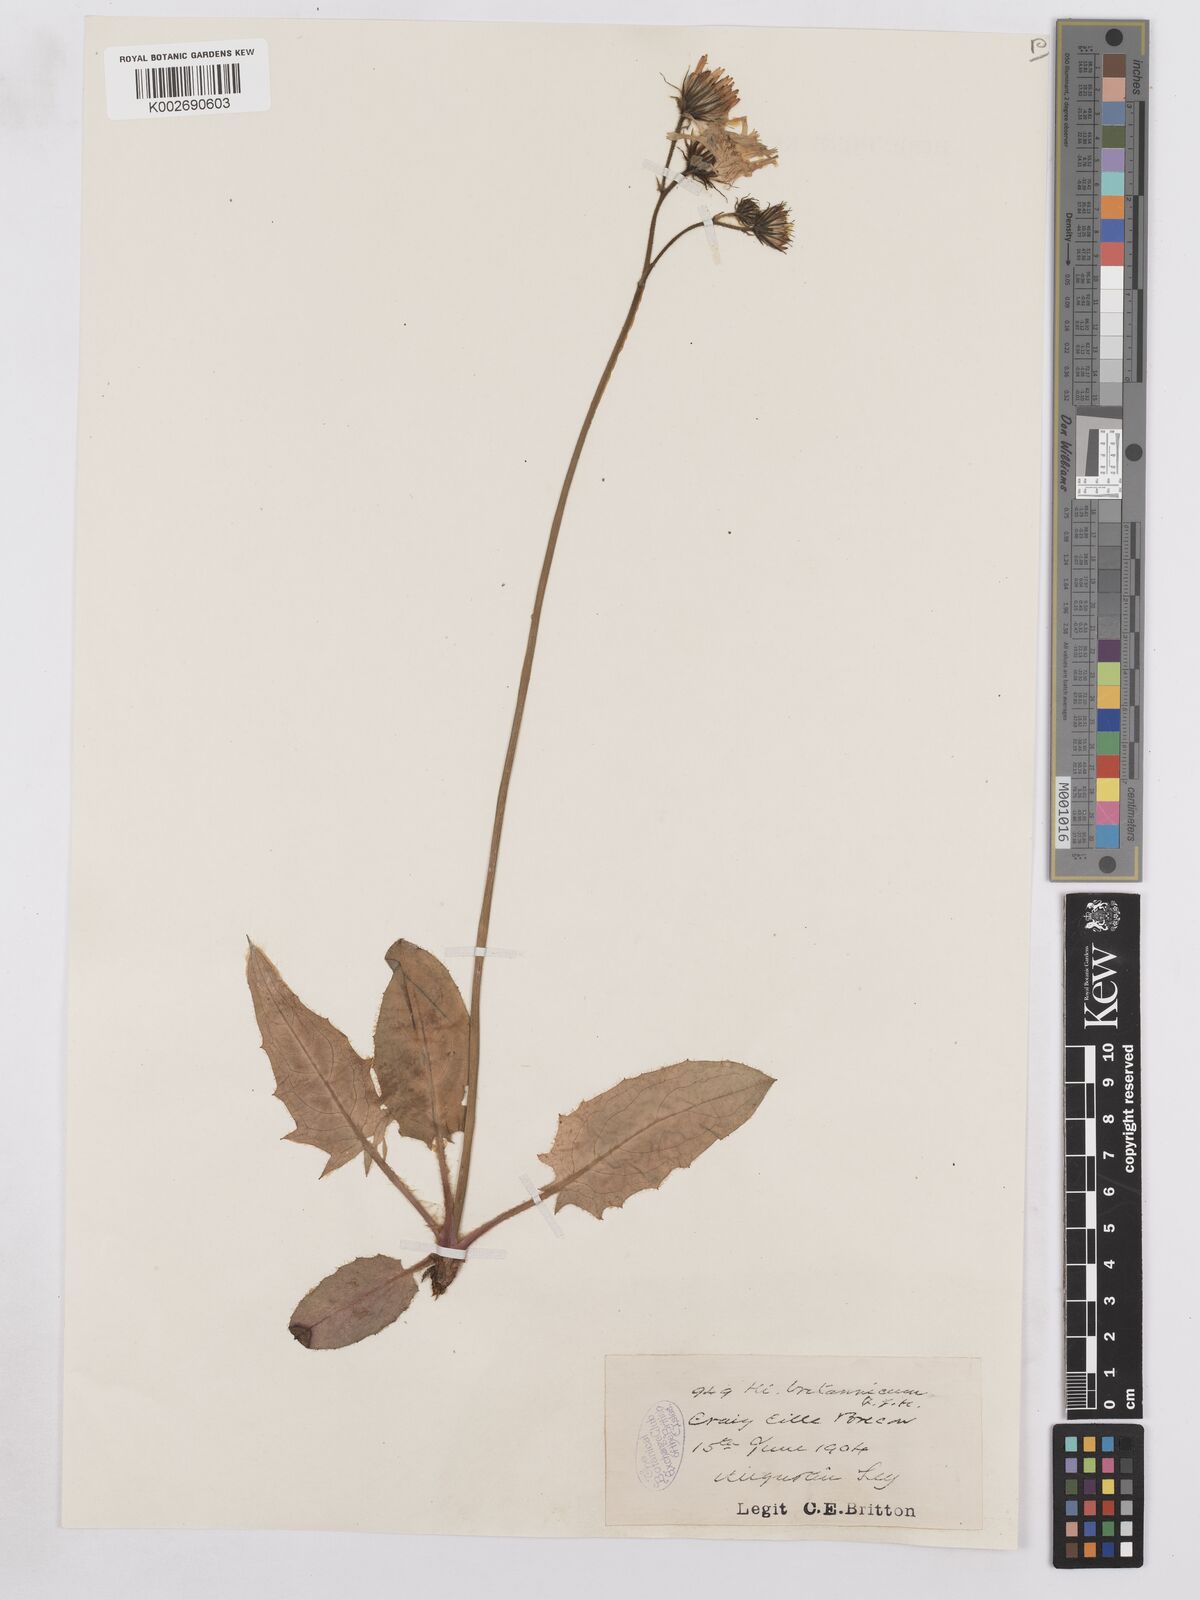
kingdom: Plantae
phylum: Tracheophyta
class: Magnoliopsida
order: Asterales
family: Asteraceae
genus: Hieracium
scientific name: Hieracium britannicum
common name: British hawkweed
